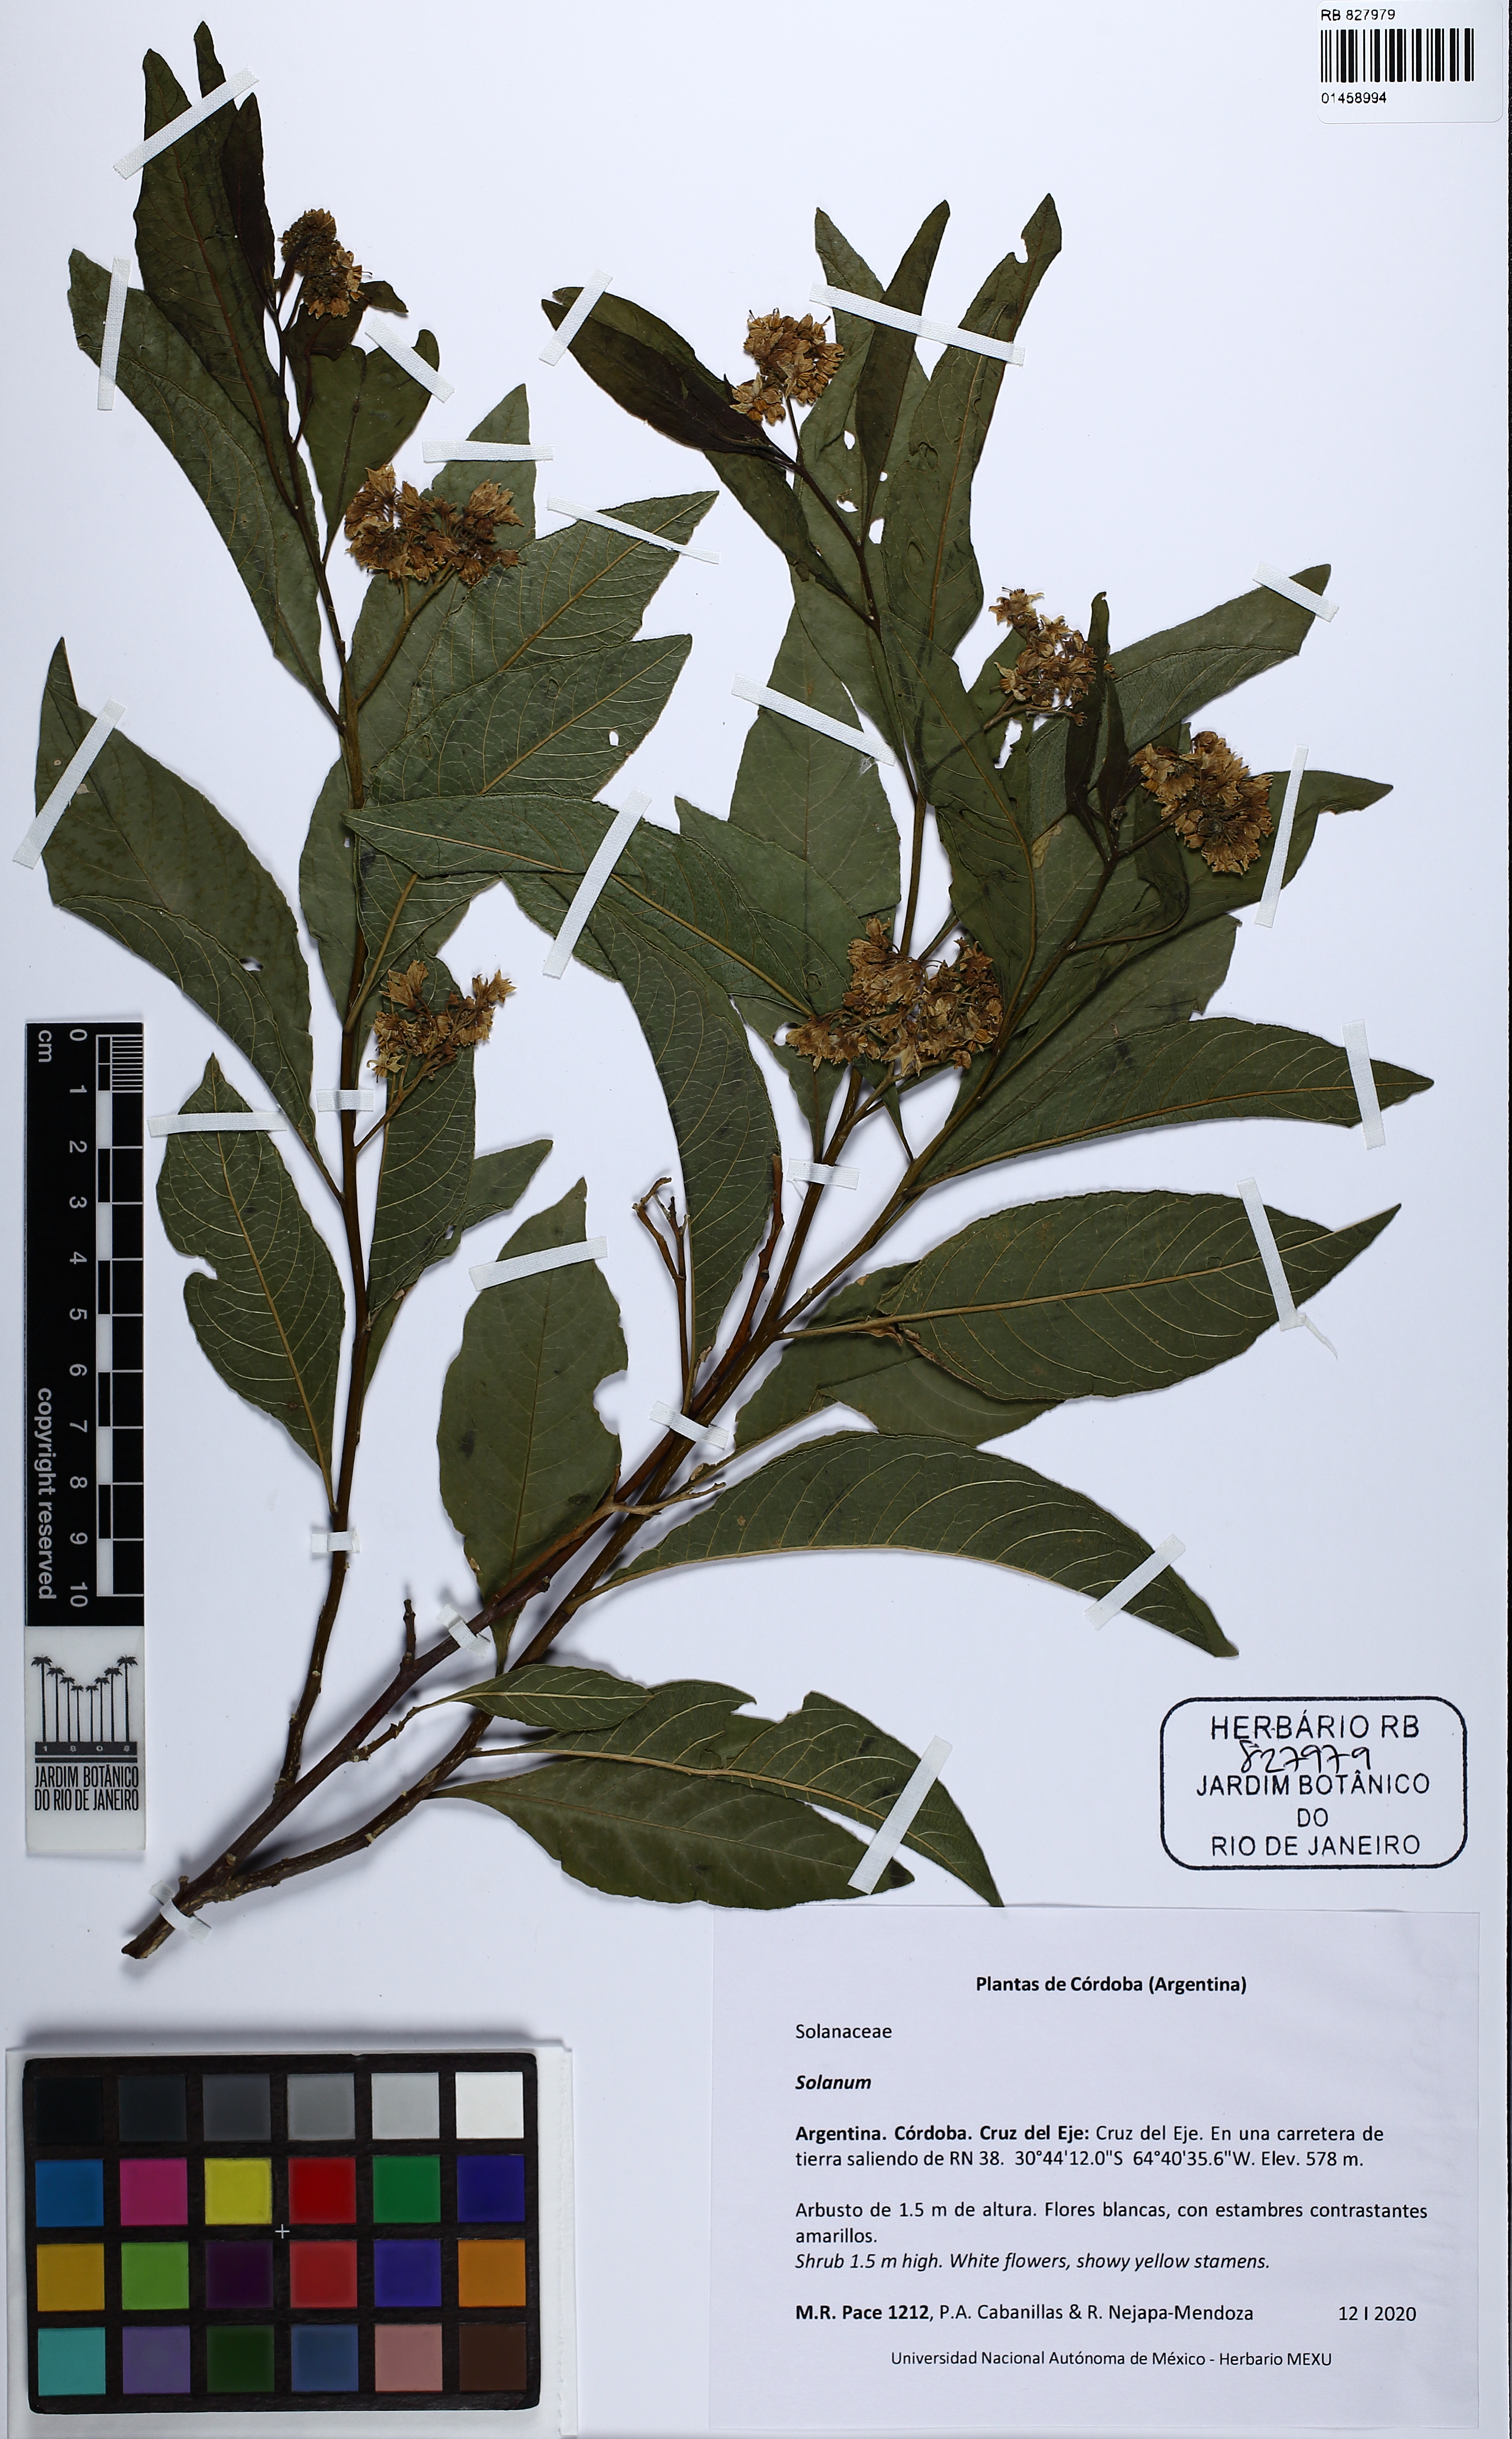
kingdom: Plantae
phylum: Tracheophyta
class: Magnoliopsida
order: Solanales
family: Solanaceae
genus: Solanum
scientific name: Solanum
